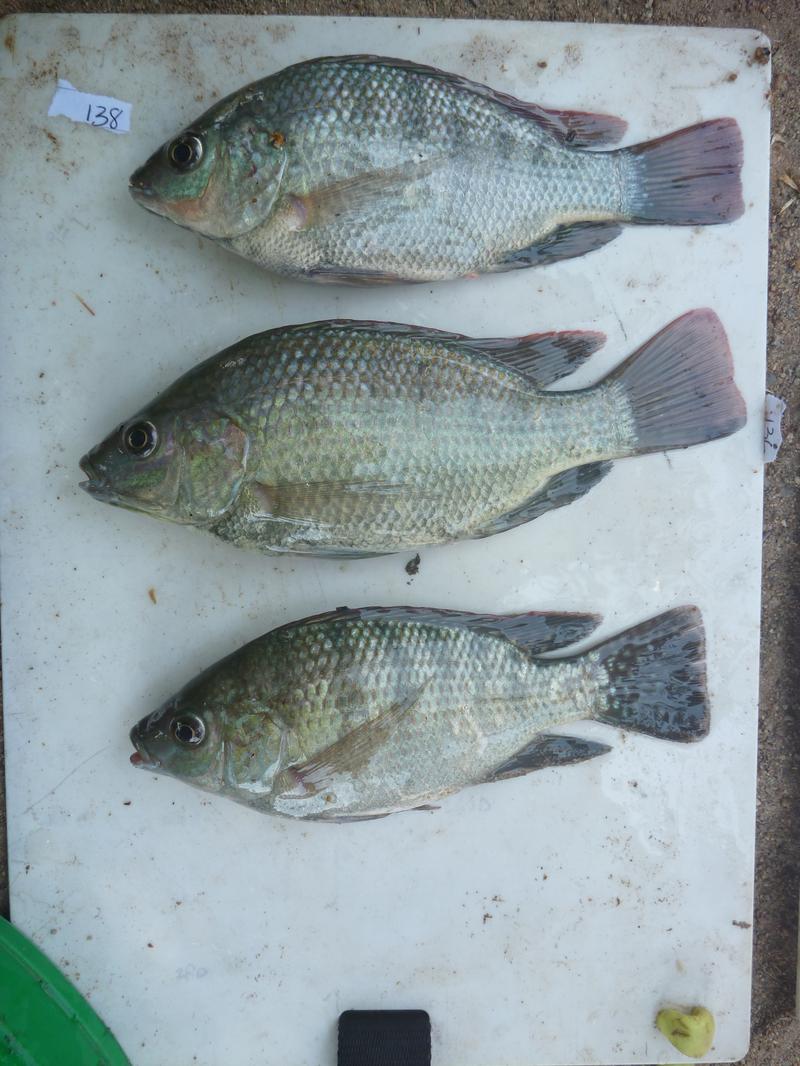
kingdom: Animalia
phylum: Chordata
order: Perciformes
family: Cichlidae
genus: Oreochromis
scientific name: Oreochromis
